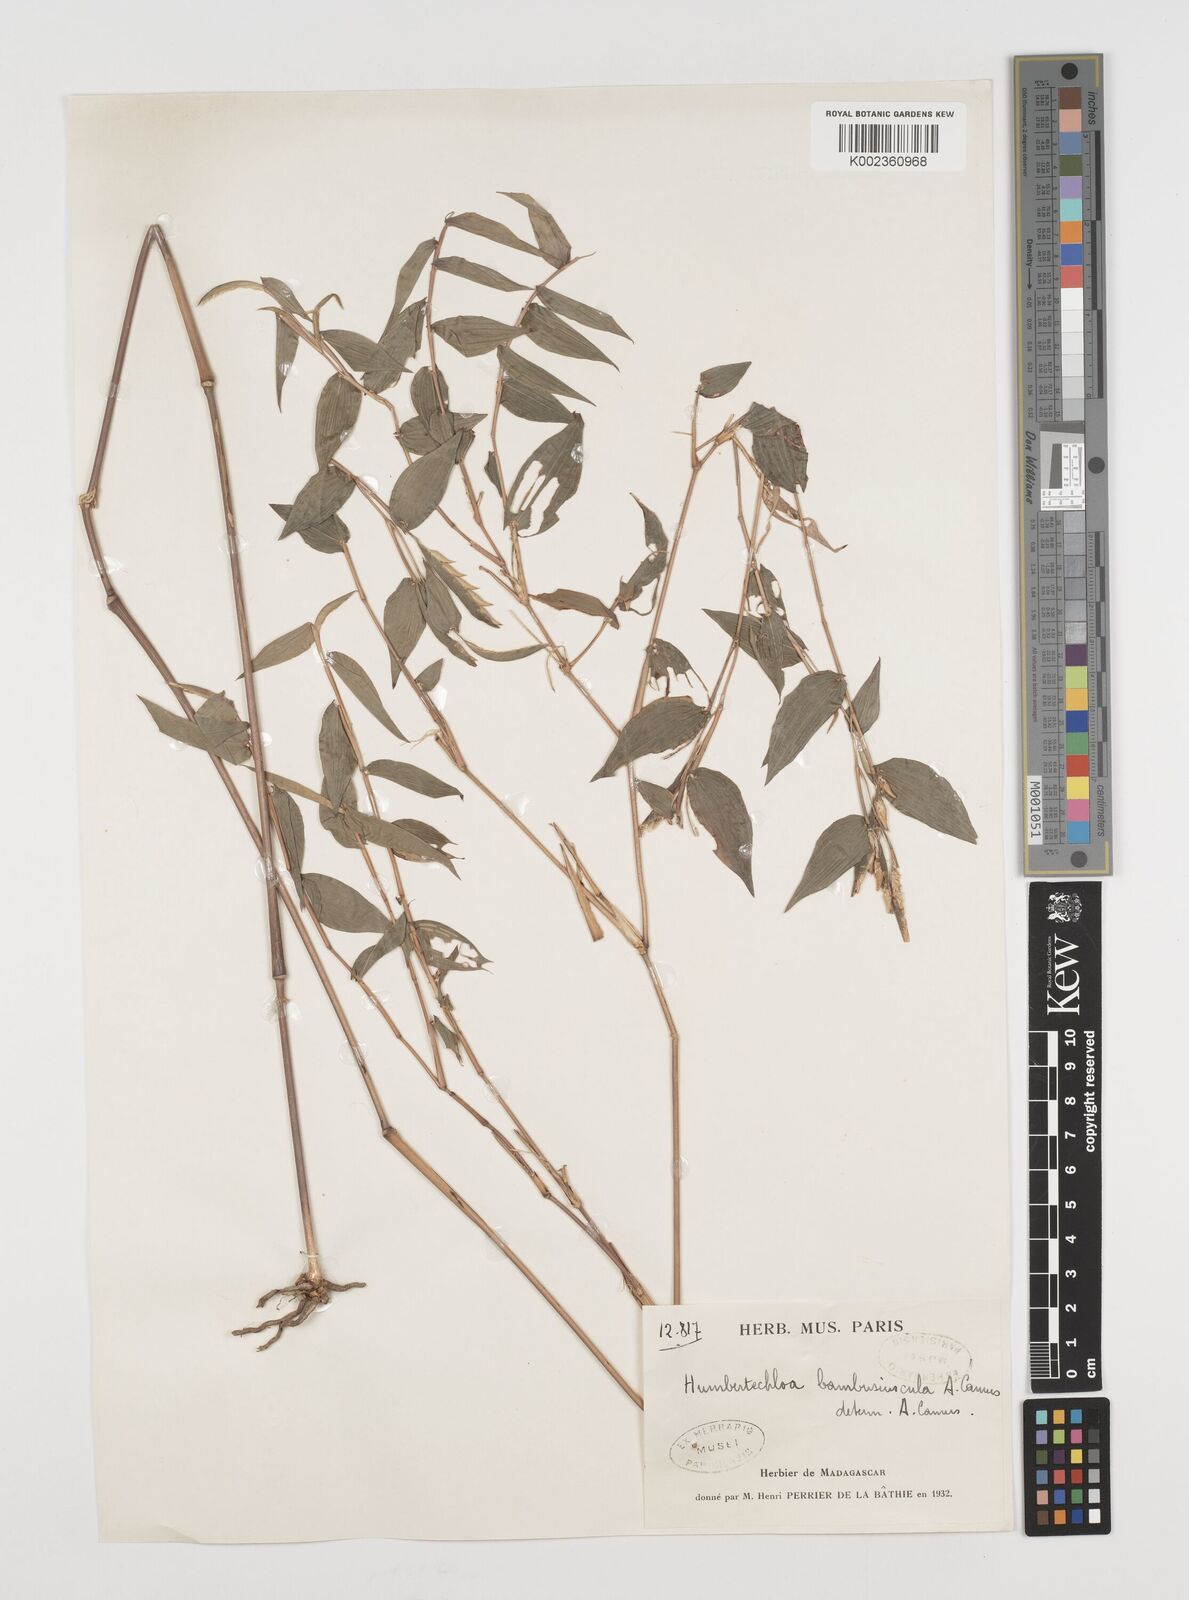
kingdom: Plantae
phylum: Tracheophyta
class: Liliopsida
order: Poales
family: Poaceae
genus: Humbertochloa
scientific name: Humbertochloa bambusiuscula
